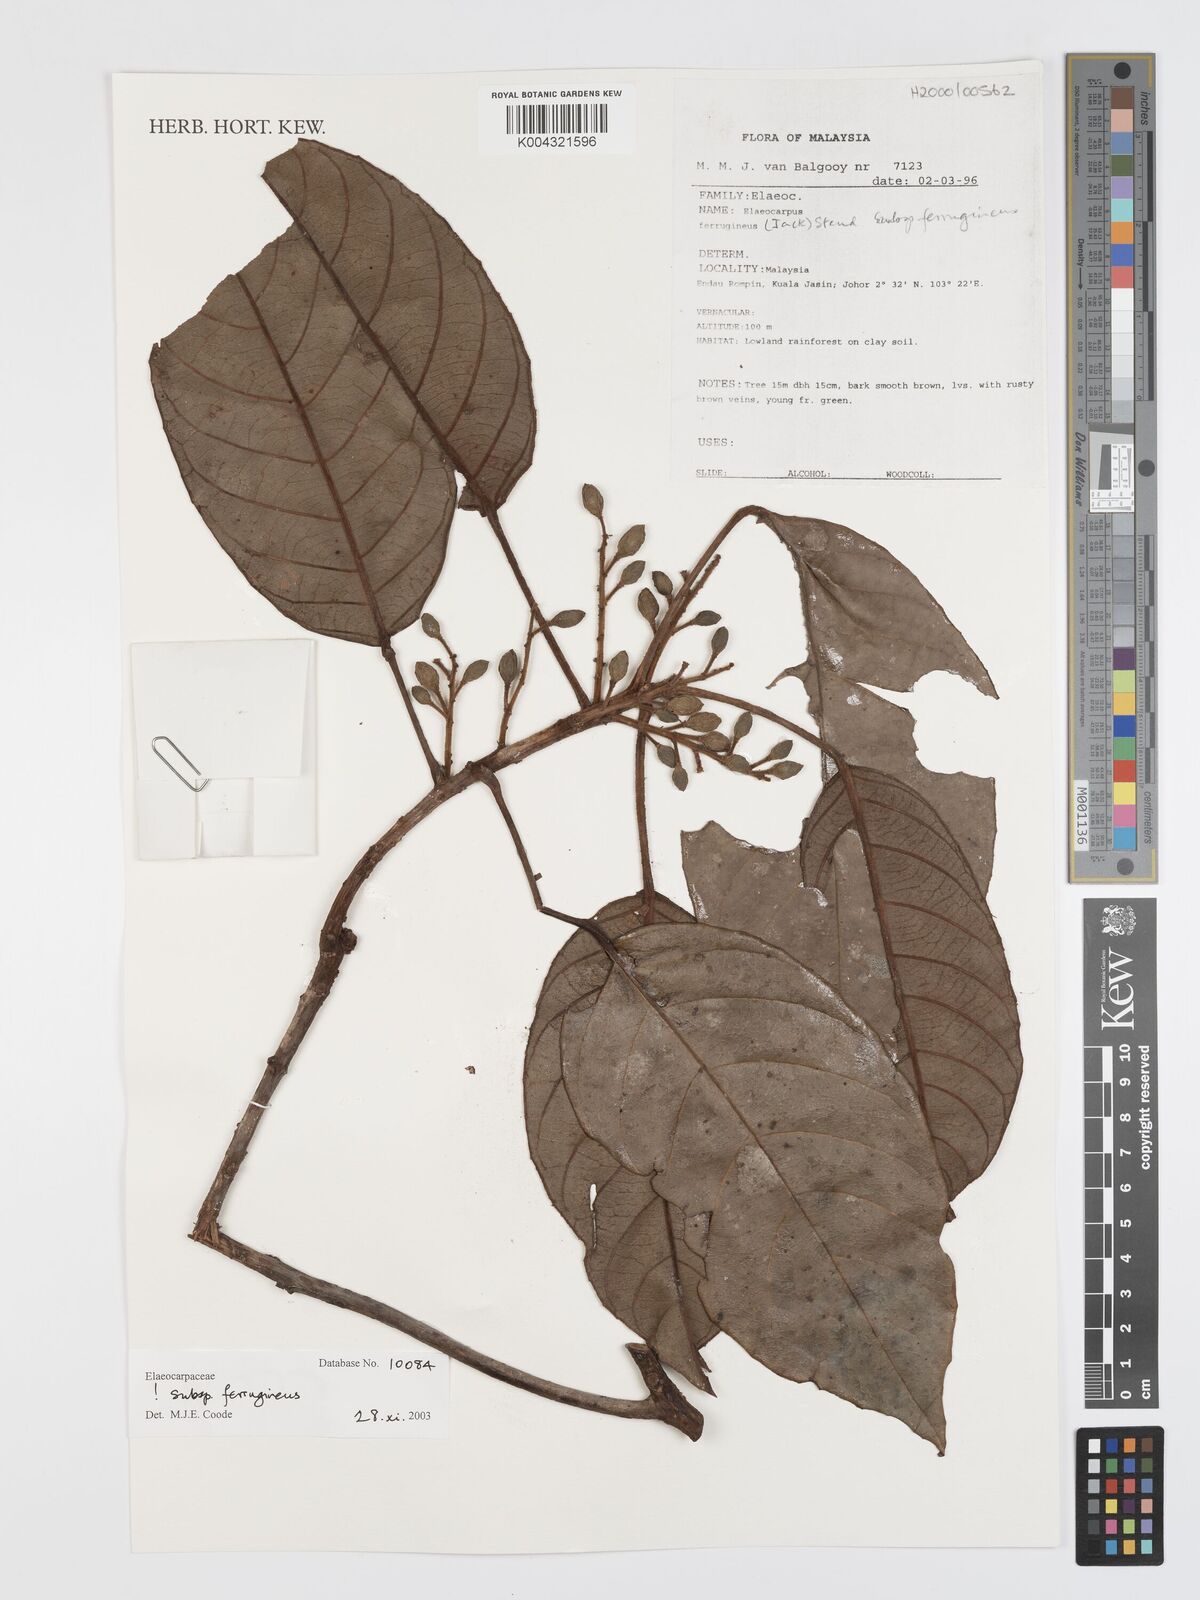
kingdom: Plantae
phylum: Tracheophyta
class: Magnoliopsida
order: Oxalidales
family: Elaeocarpaceae
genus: Elaeocarpus
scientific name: Elaeocarpus ferrugineus
